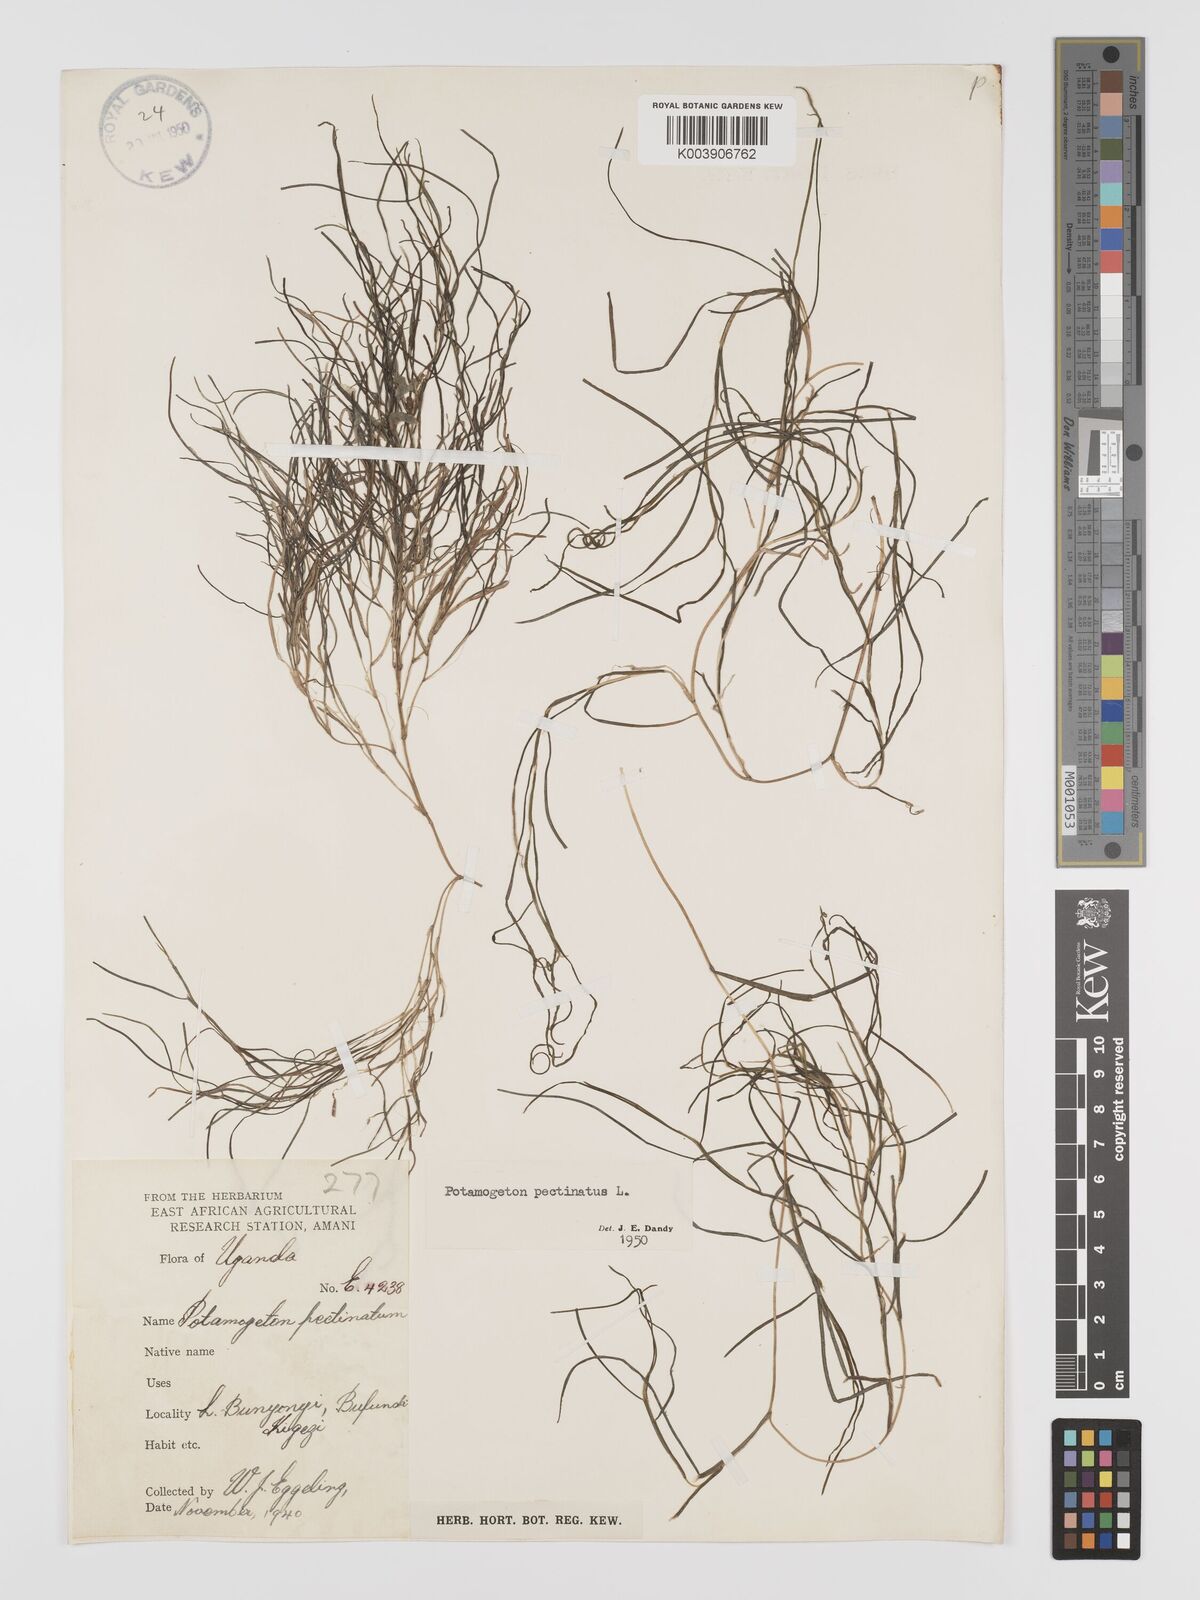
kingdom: Plantae
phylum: Tracheophyta
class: Liliopsida
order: Alismatales
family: Potamogetonaceae
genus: Stuckenia
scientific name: Stuckenia pectinata
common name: Sago pondweed
